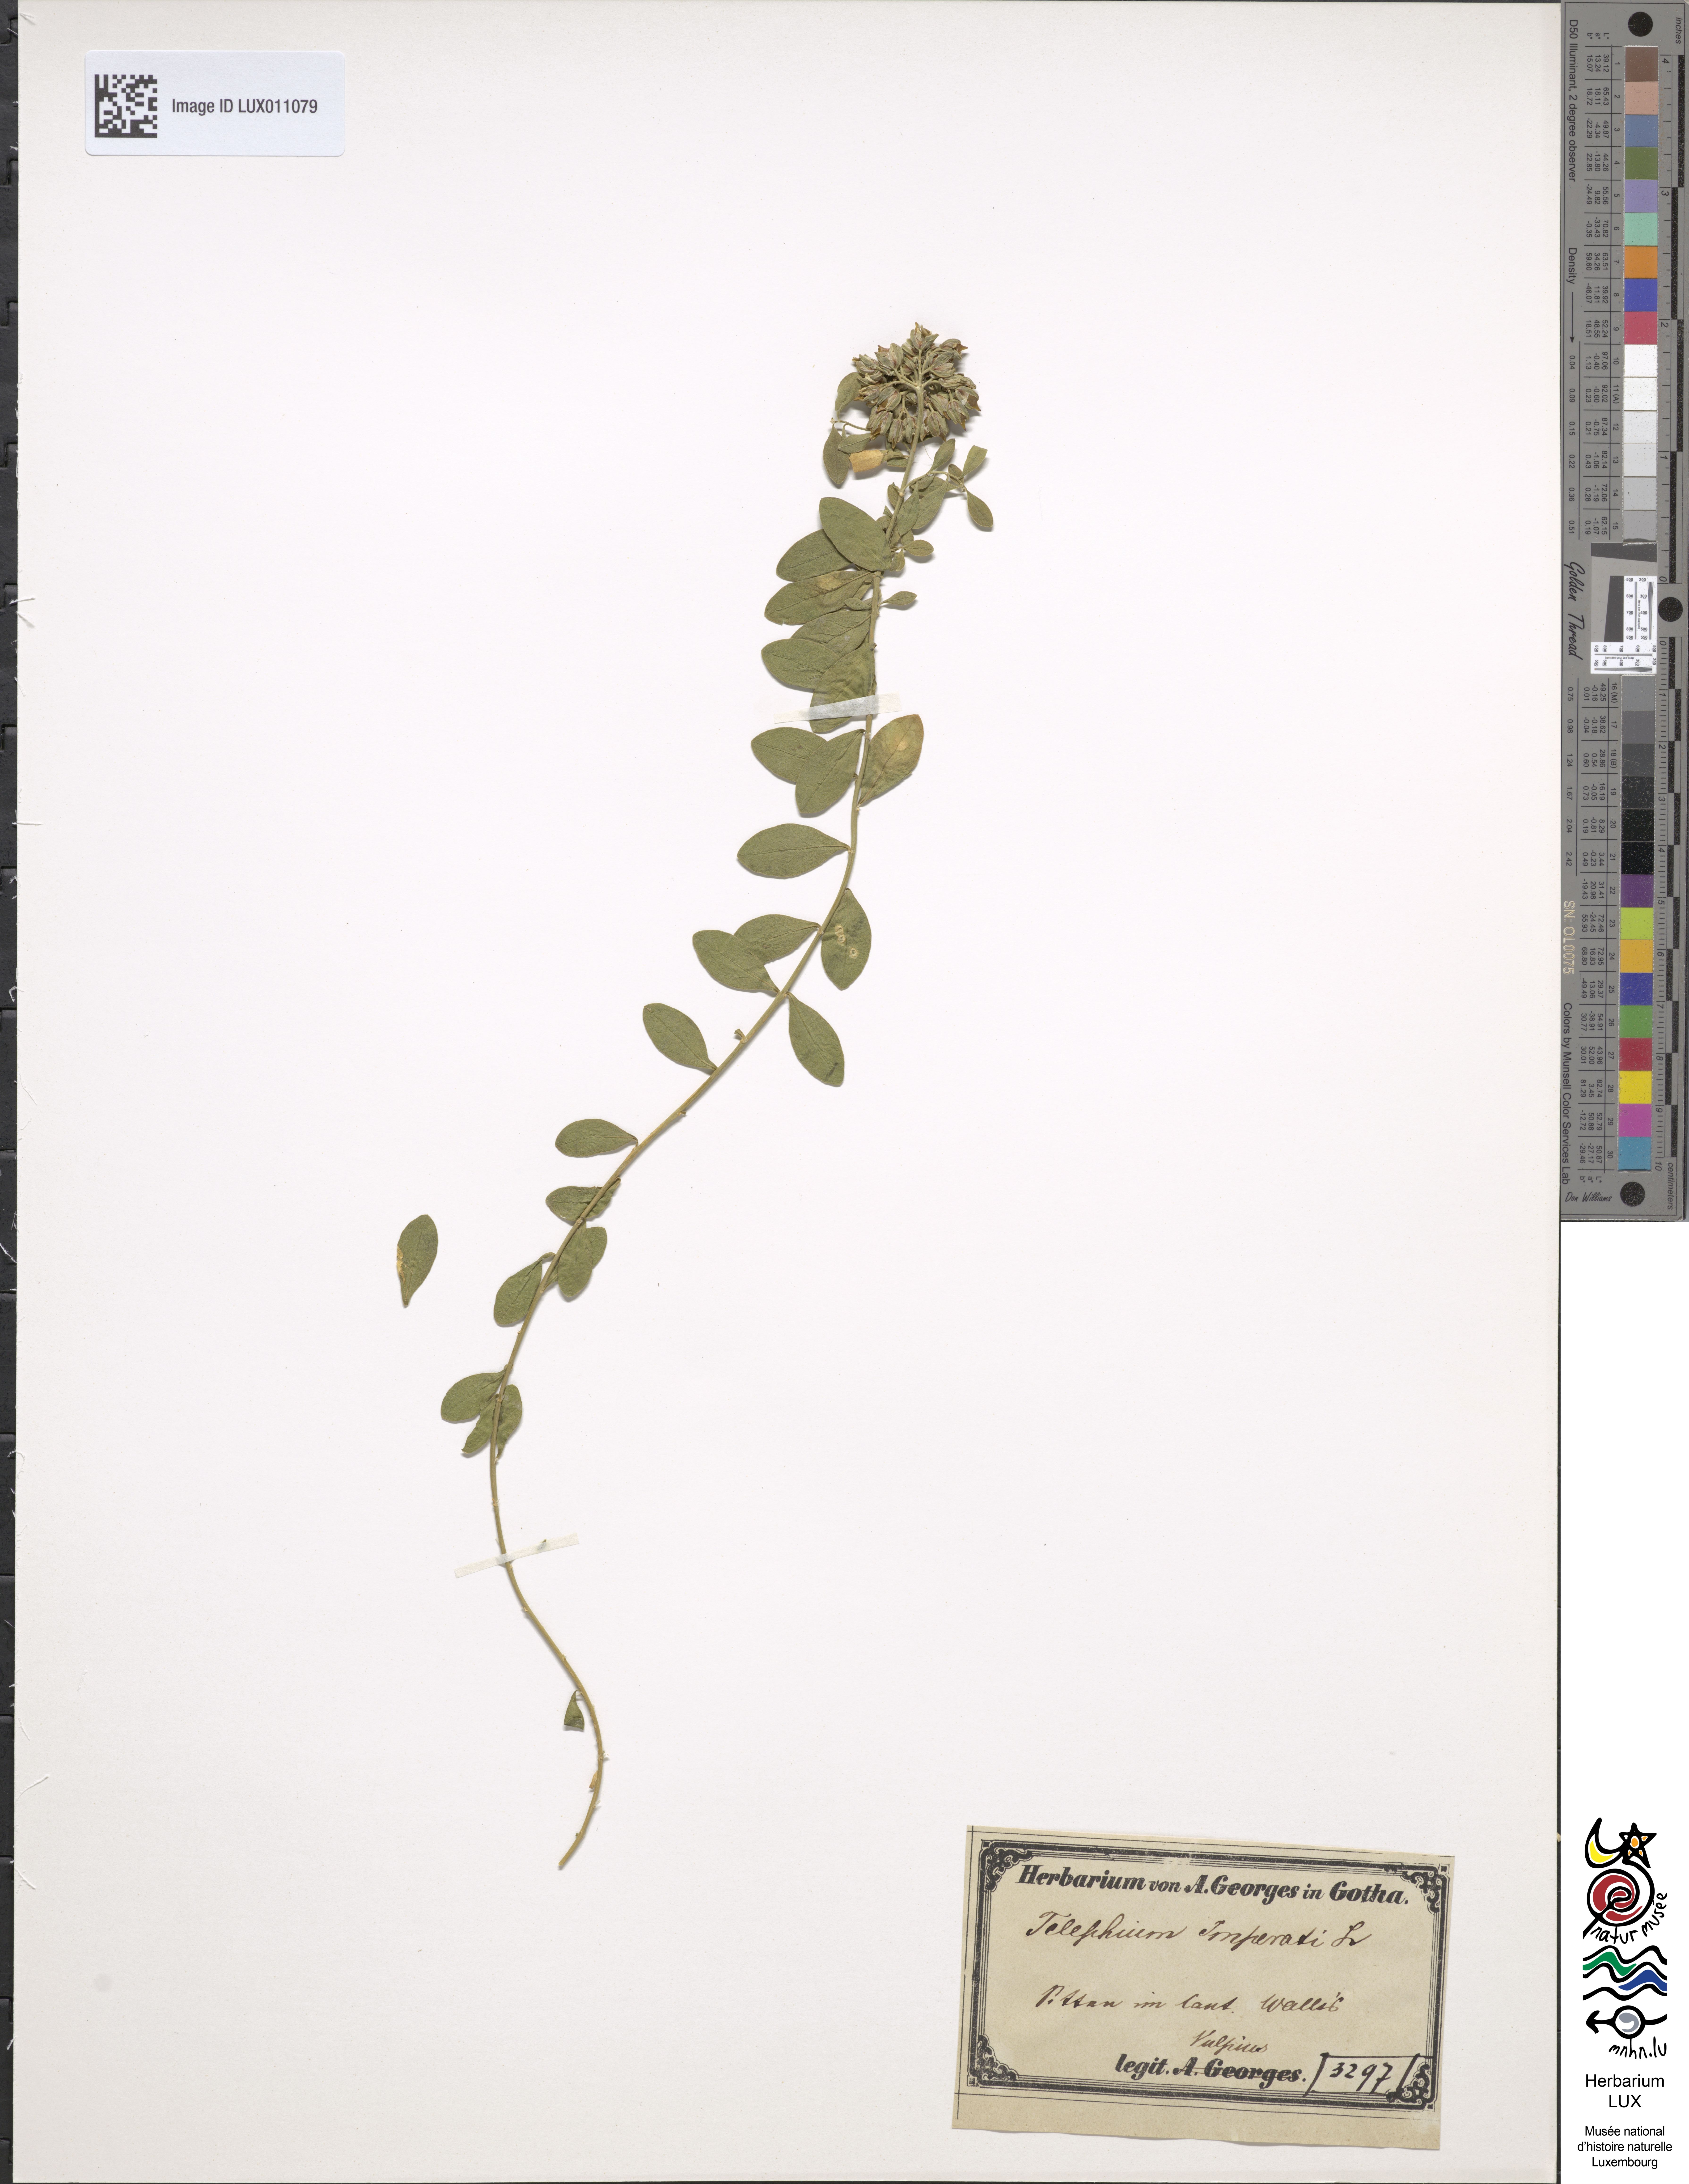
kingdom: Plantae
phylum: Tracheophyta
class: Magnoliopsida
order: Caryophyllales
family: Caryophyllaceae
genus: Telephium
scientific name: Telephium imperati
